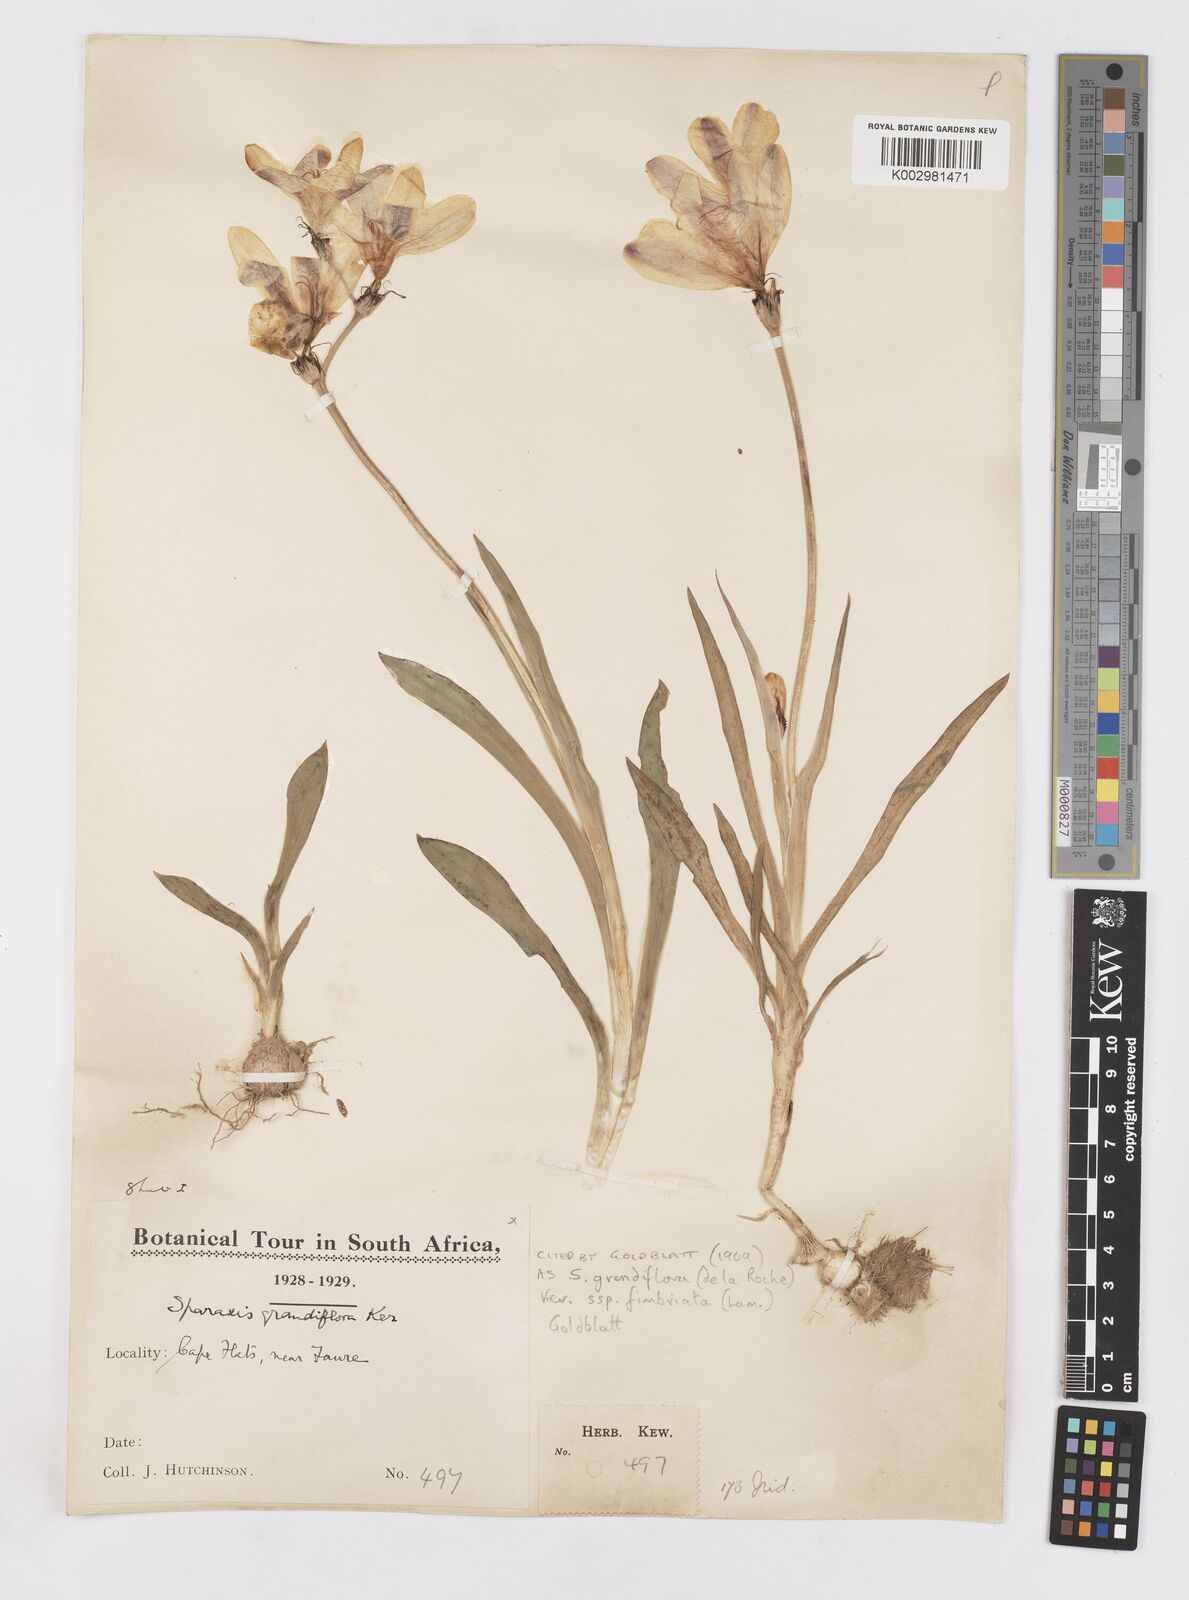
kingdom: Plantae
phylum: Tracheophyta
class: Liliopsida
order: Asparagales
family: Iridaceae
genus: Sparaxis
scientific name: Sparaxis grandiflora
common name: Plain harlequin-flower
